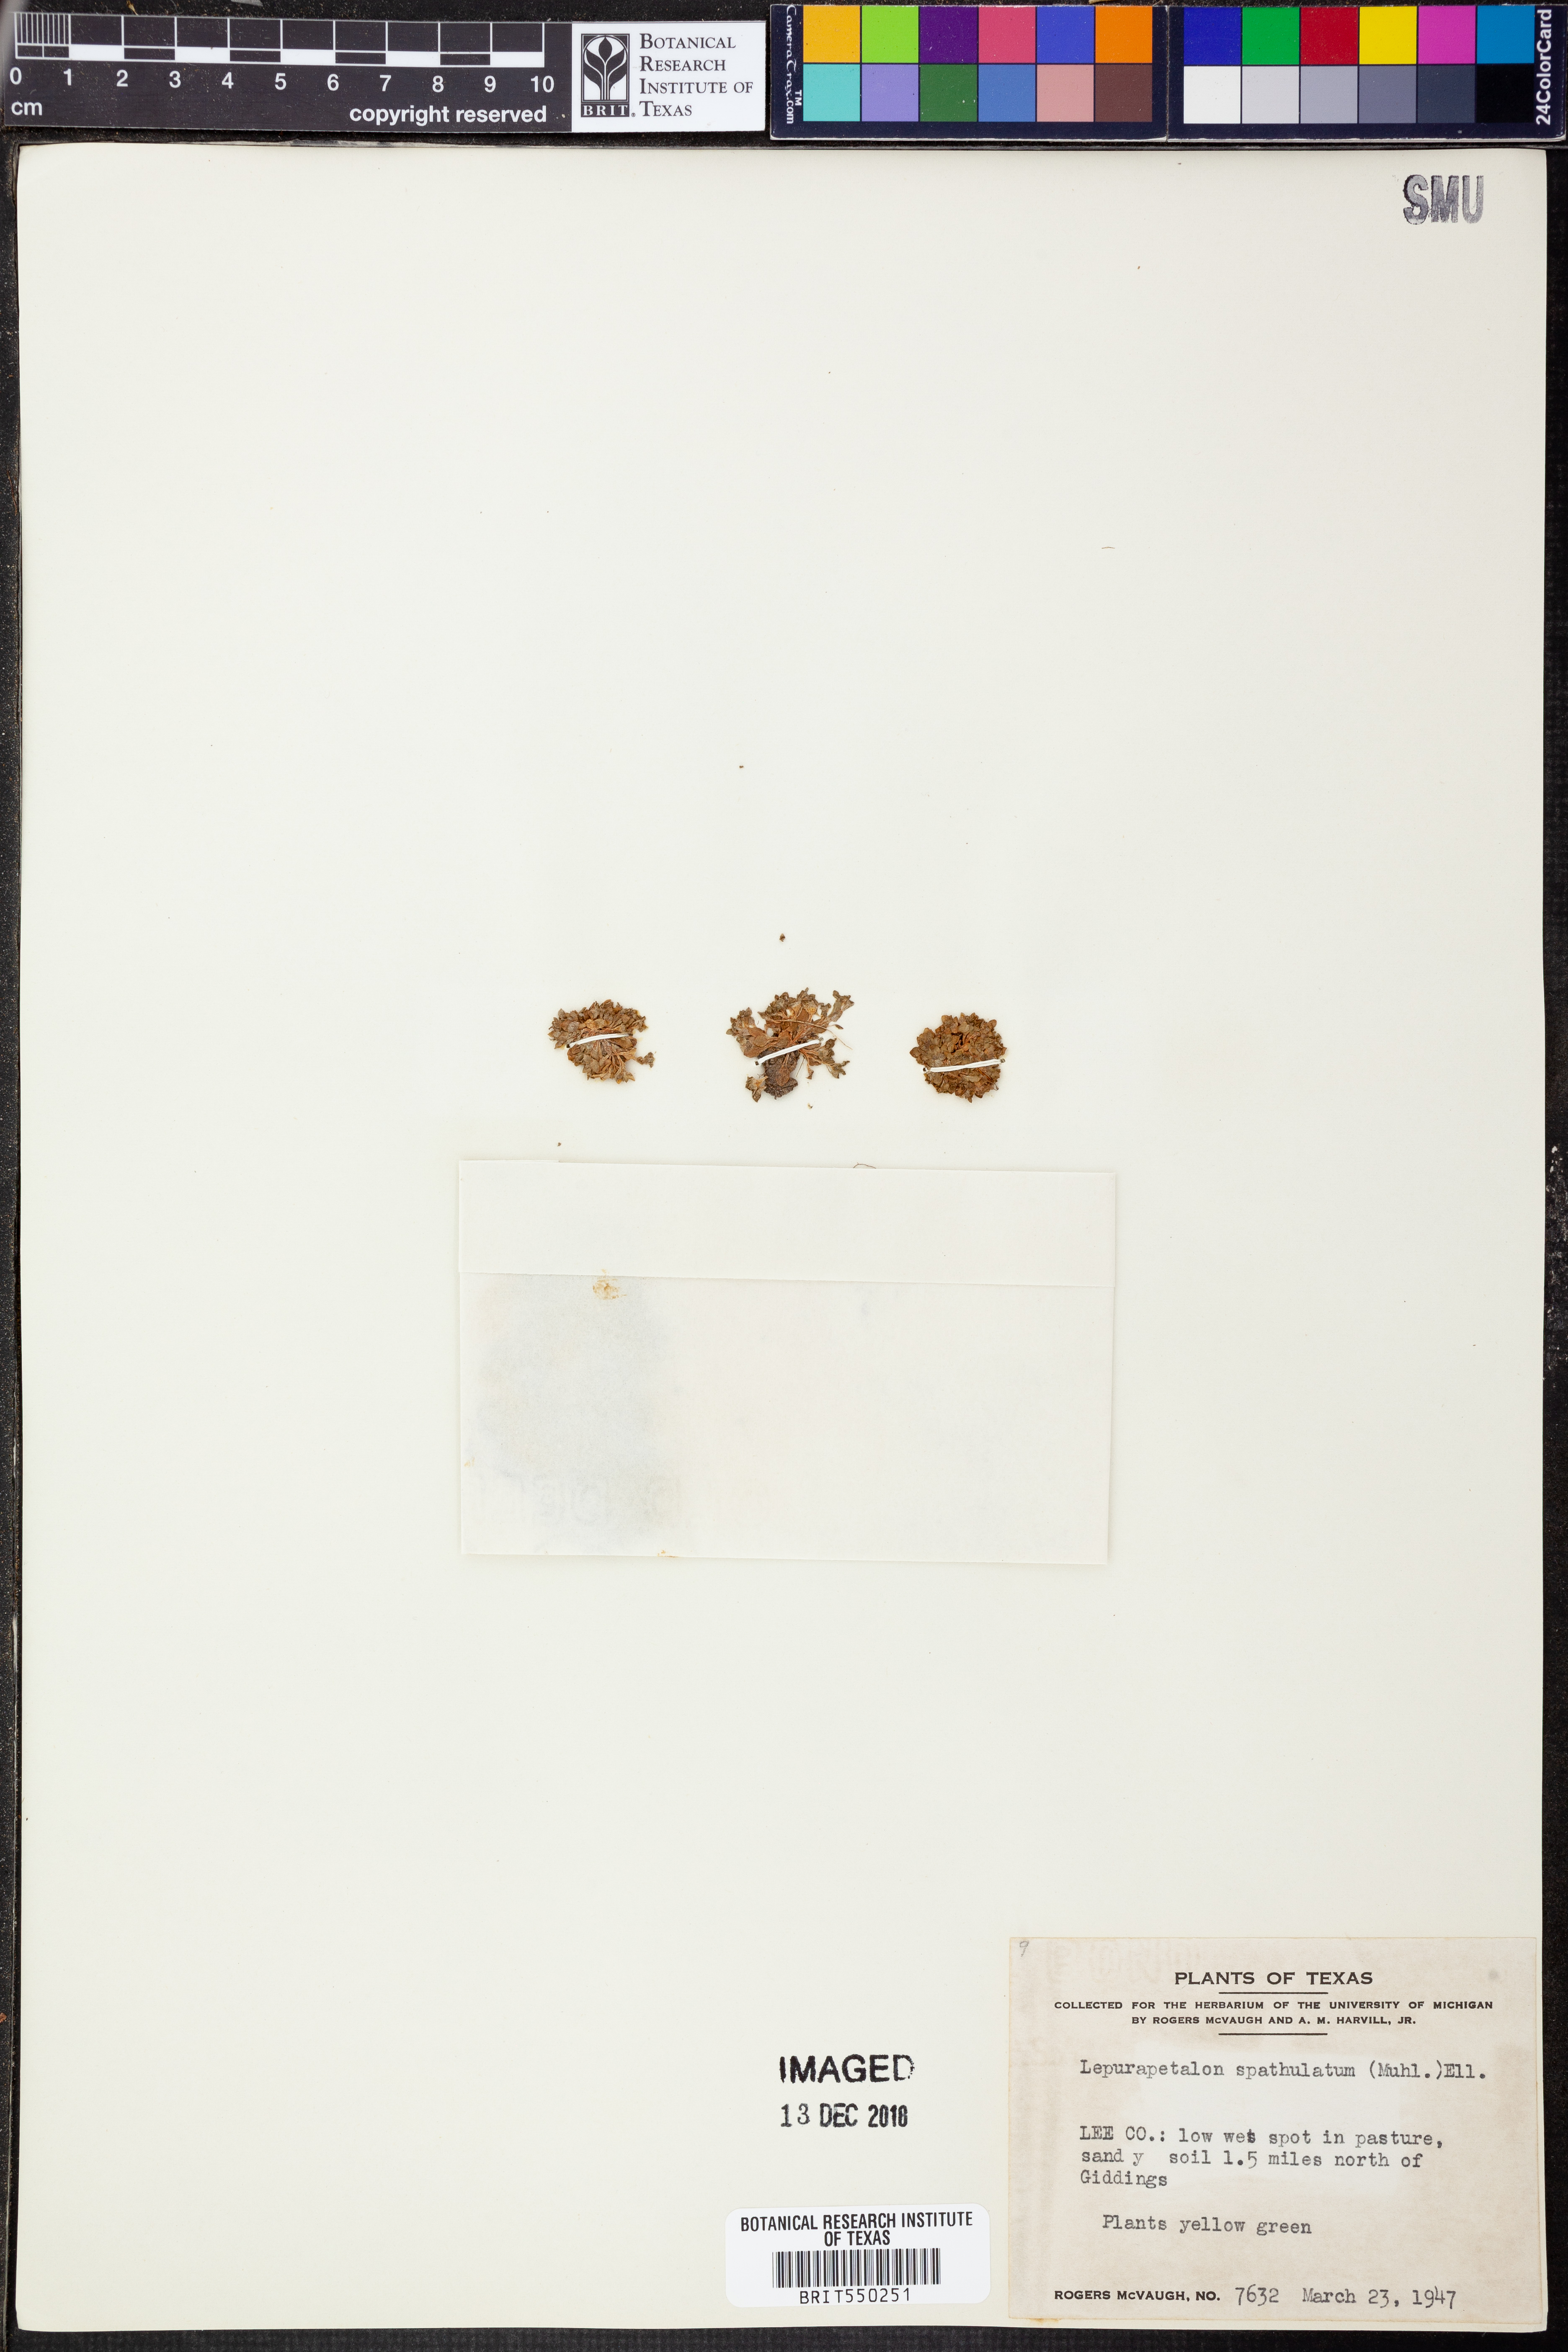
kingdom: Plantae
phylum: Tracheophyta
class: Magnoliopsida
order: Celastrales
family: Parnassiaceae
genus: Lepuropetalon
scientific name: Lepuropetalon spathulatum
